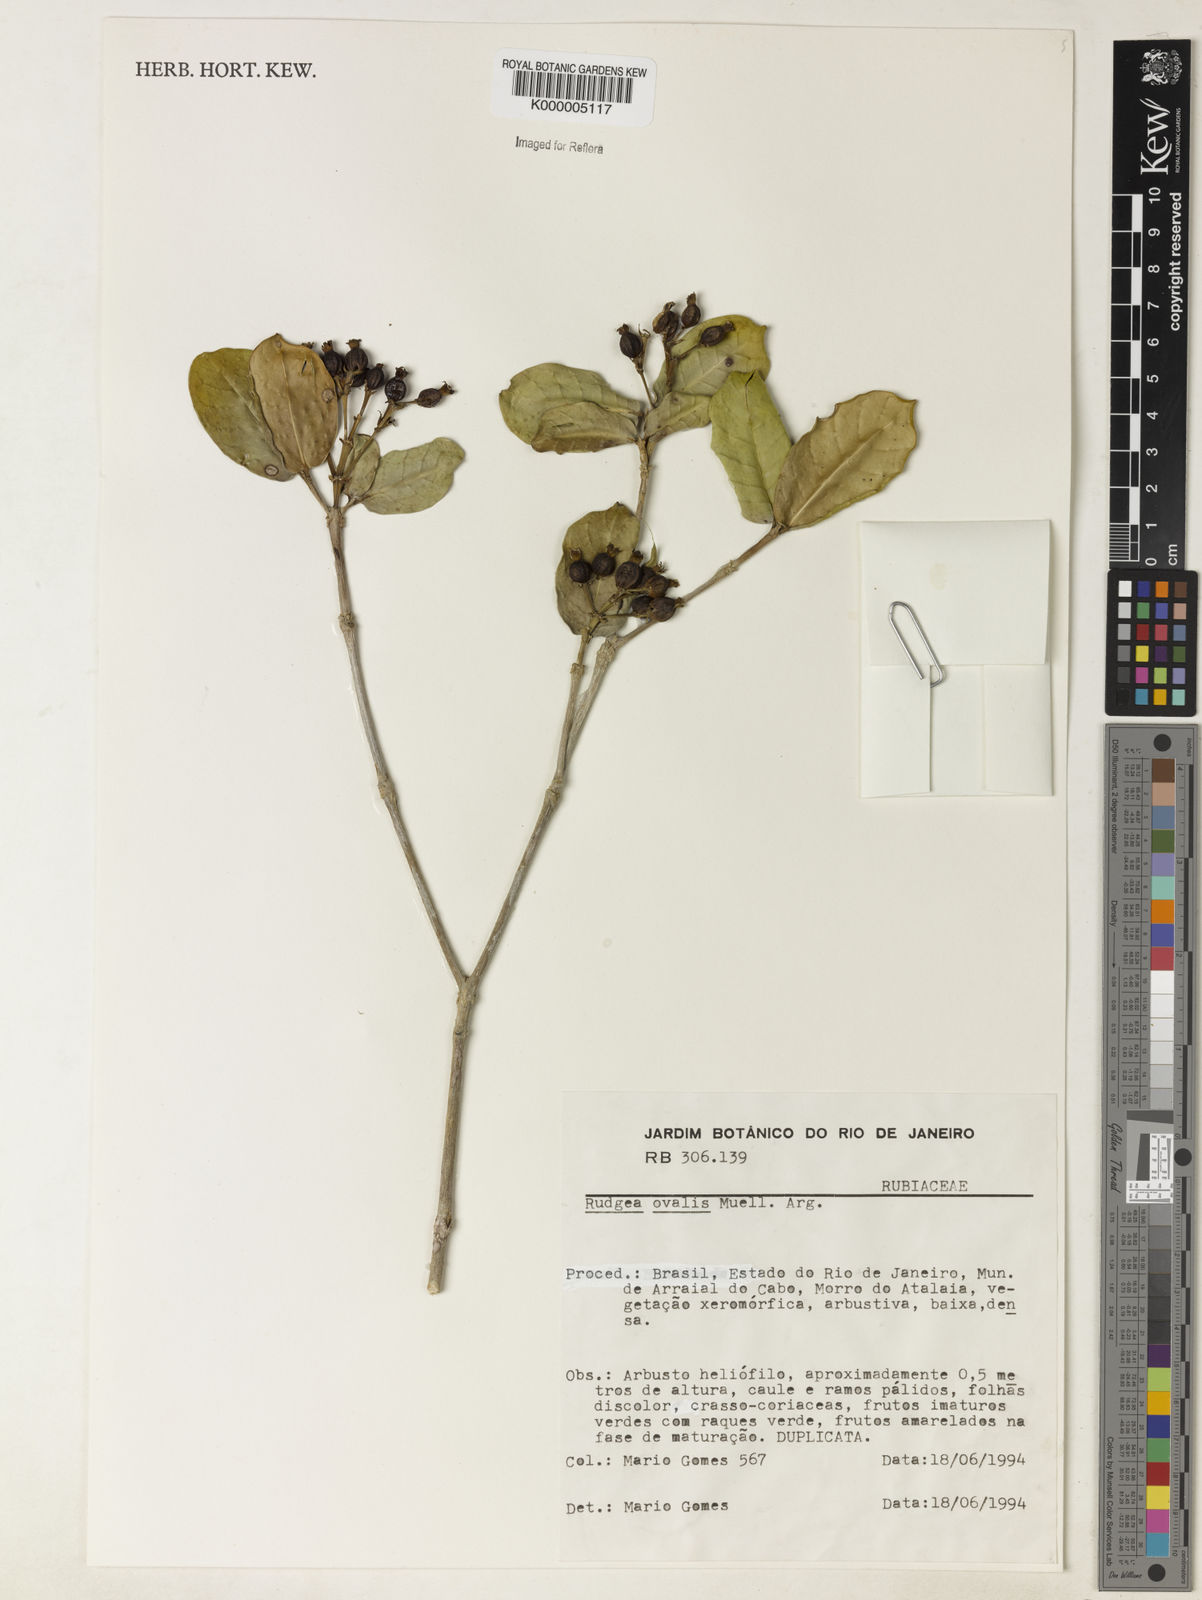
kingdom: Plantae
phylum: Tracheophyta
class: Magnoliopsida
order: Gentianales
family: Rubiaceae
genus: Rudgea
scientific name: Rudgea umbrosa
